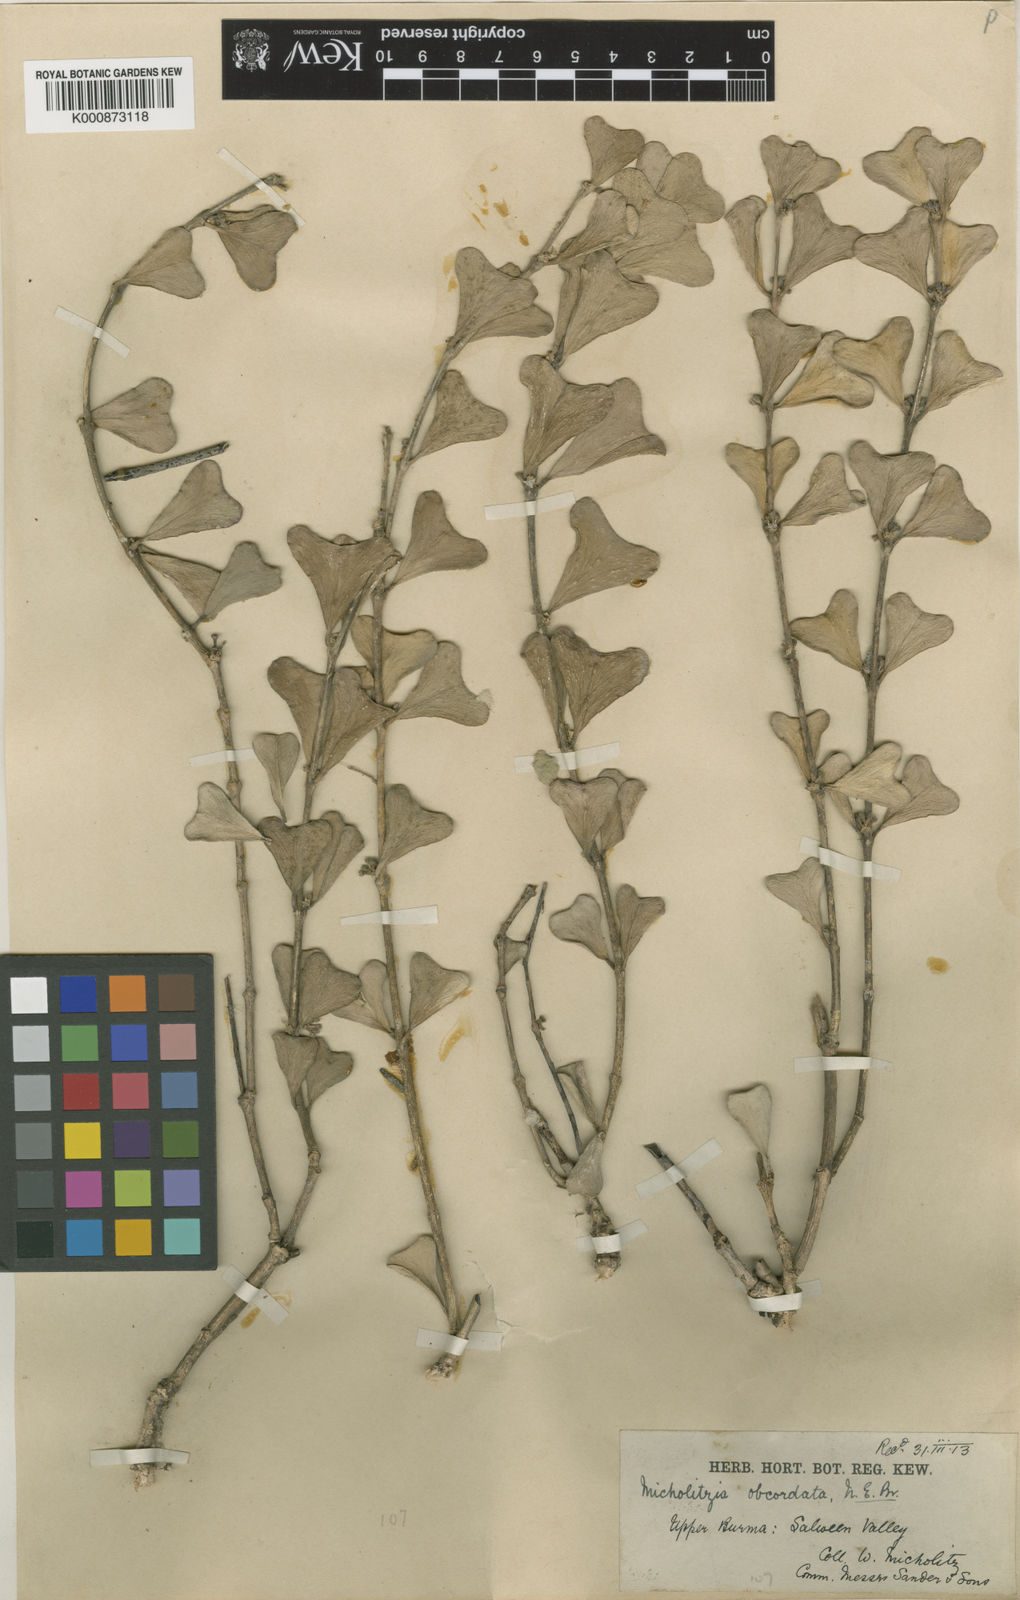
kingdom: Plantae
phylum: Tracheophyta
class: Magnoliopsida
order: Gentianales
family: Apocynaceae
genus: Hoya
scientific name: Hoya manipurensis
